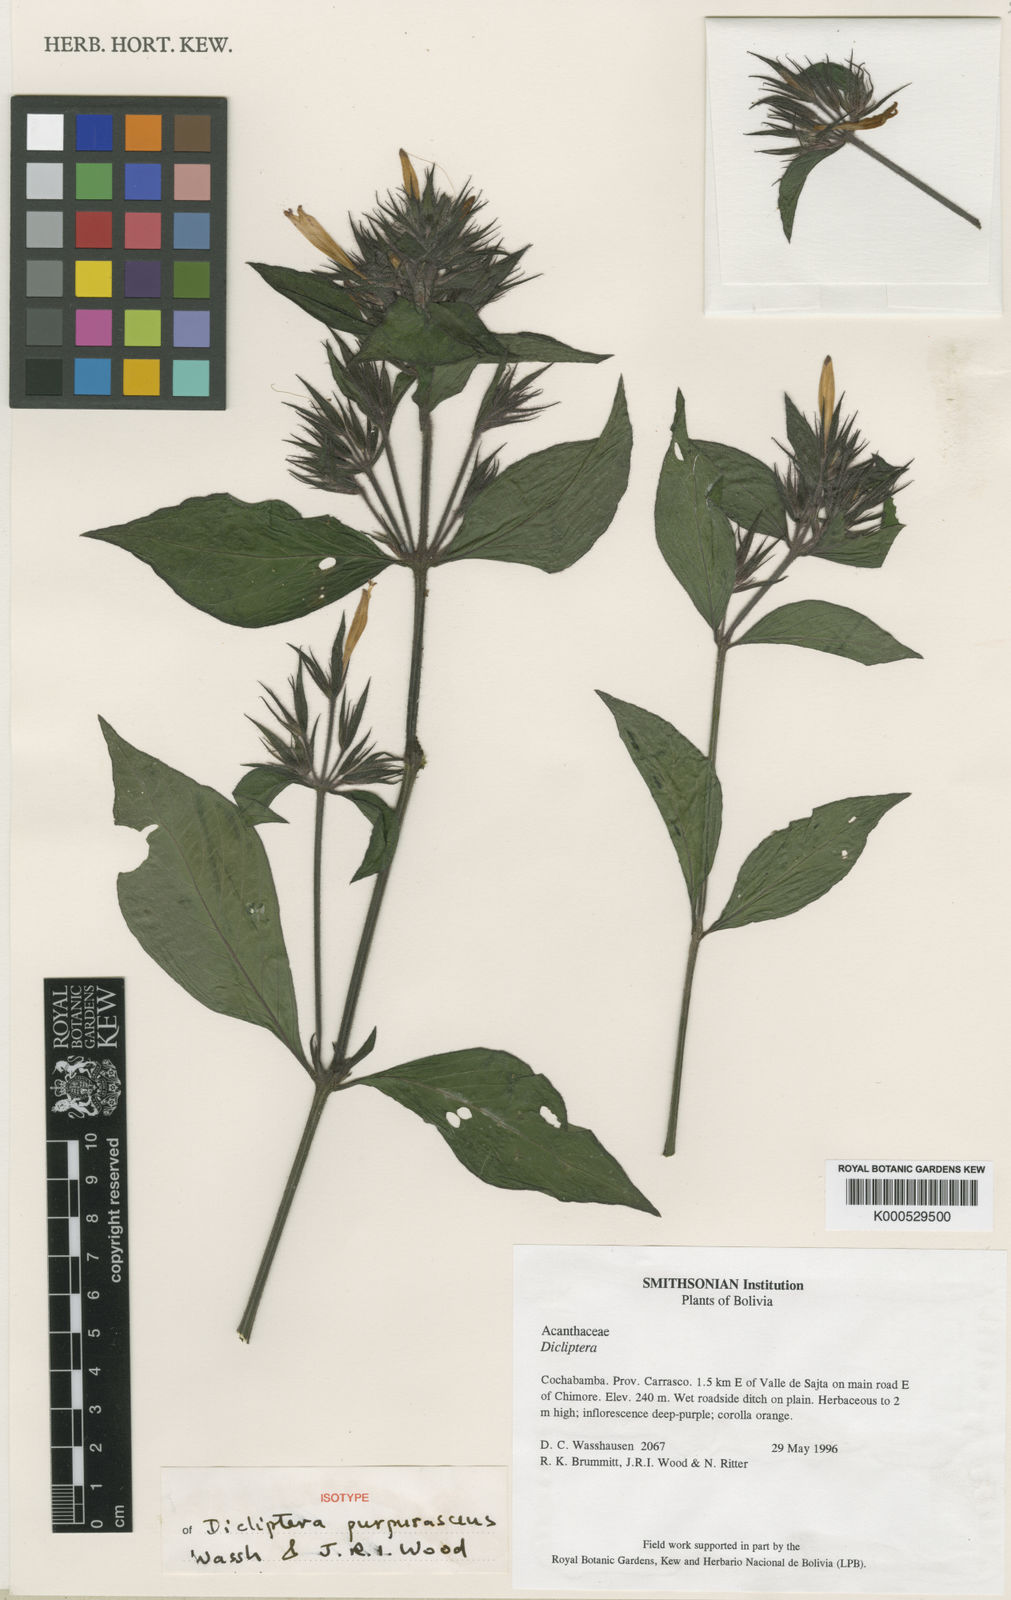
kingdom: Plantae
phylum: Tracheophyta
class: Magnoliopsida
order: Lamiales
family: Acanthaceae
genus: Dicliptera
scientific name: Dicliptera purpurascens
